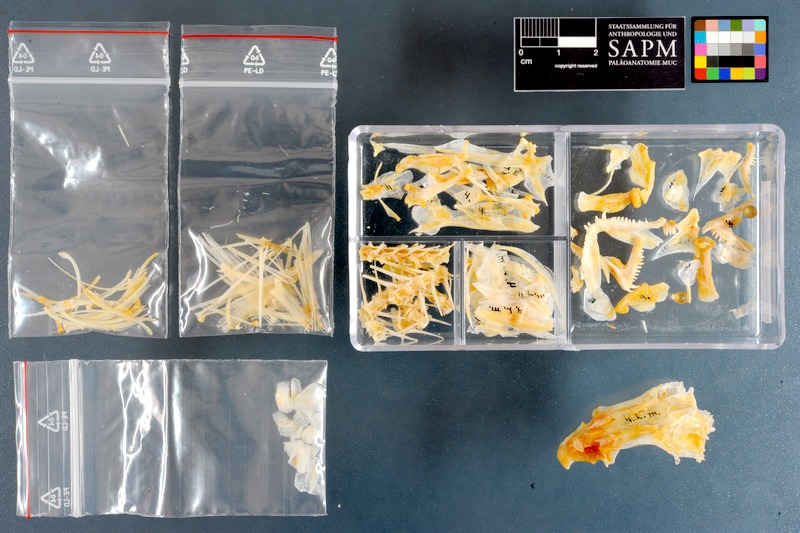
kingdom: Animalia
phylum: Chordata
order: Perciformes
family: Lethrinidae
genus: Lethrinus
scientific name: Lethrinus miniatus
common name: Trumpet emperor
